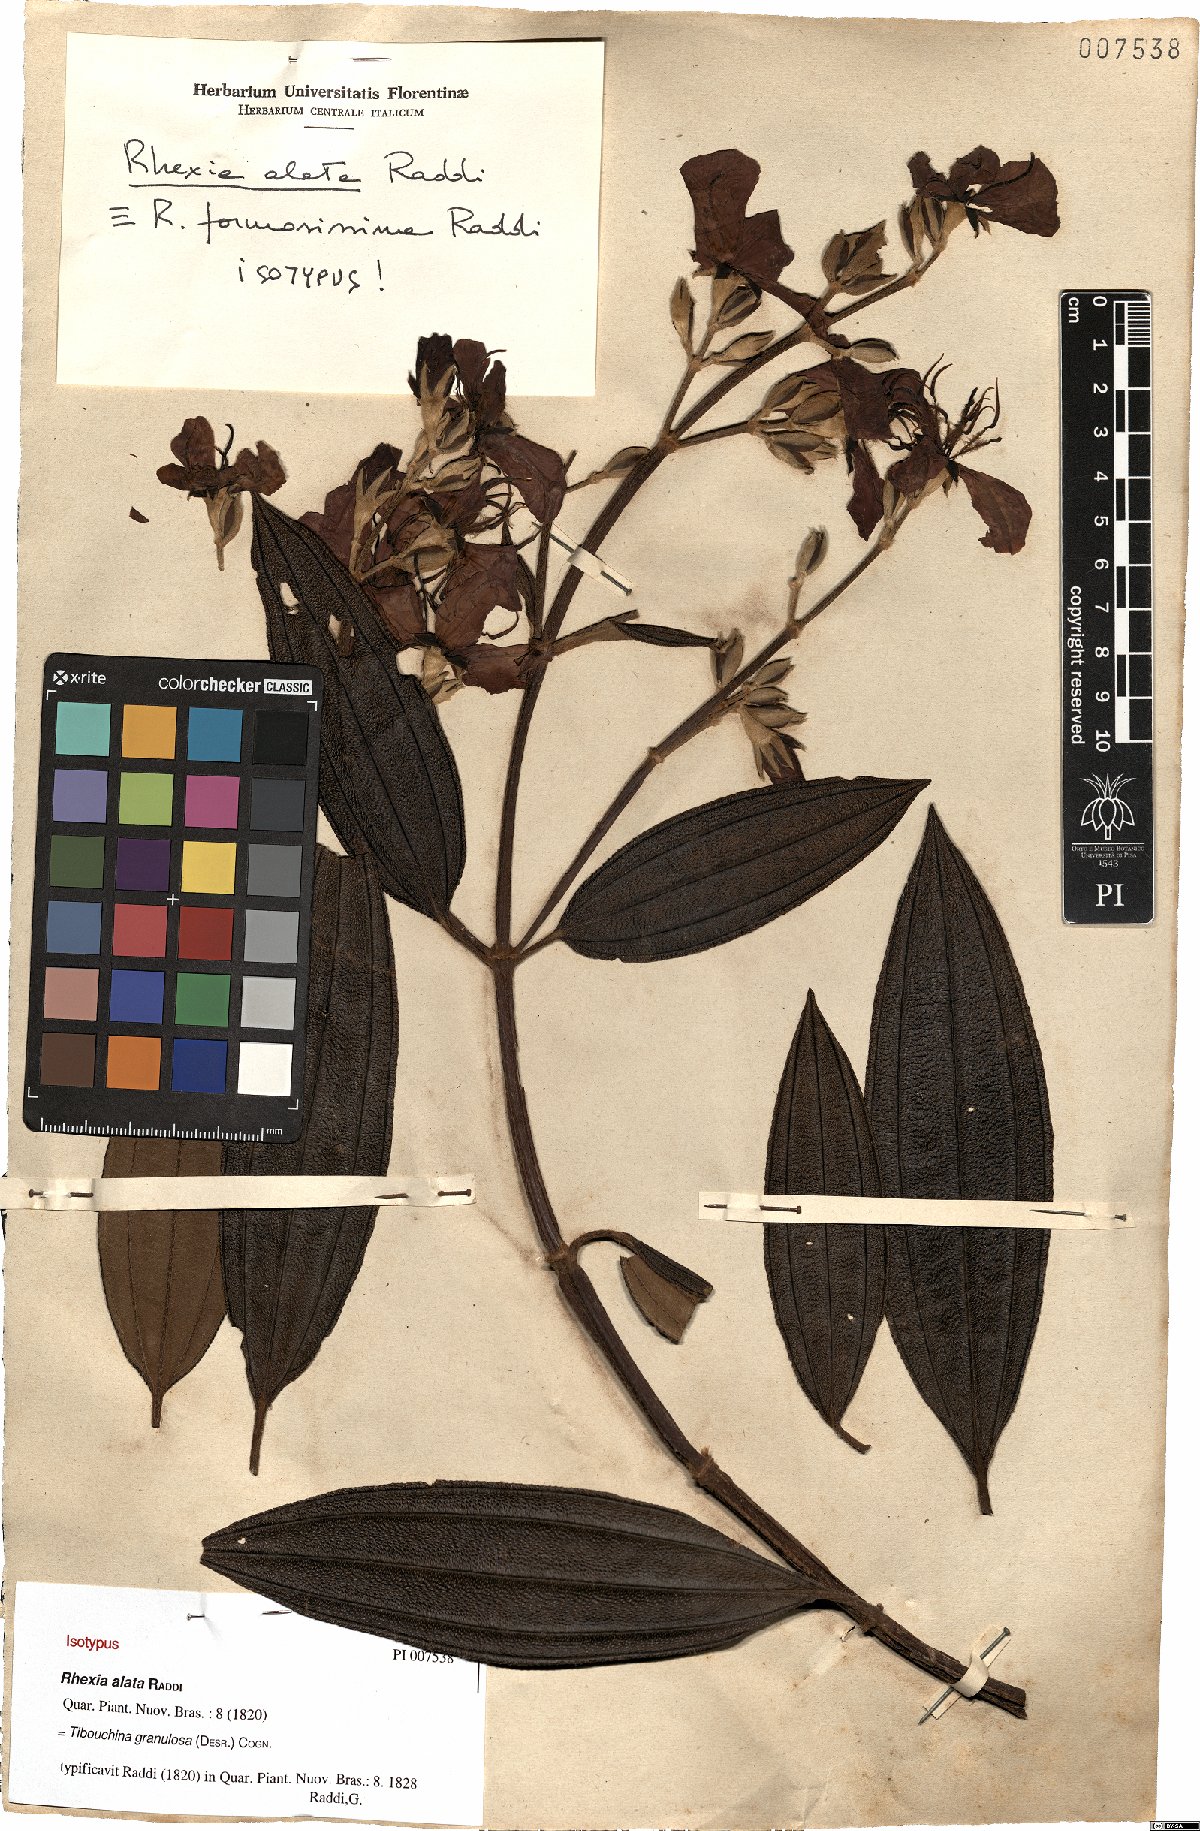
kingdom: Plantae
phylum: Tracheophyta
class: Magnoliopsida
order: Myrtales
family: Melastomataceae
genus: Pleroma
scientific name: Pleroma granulosum
